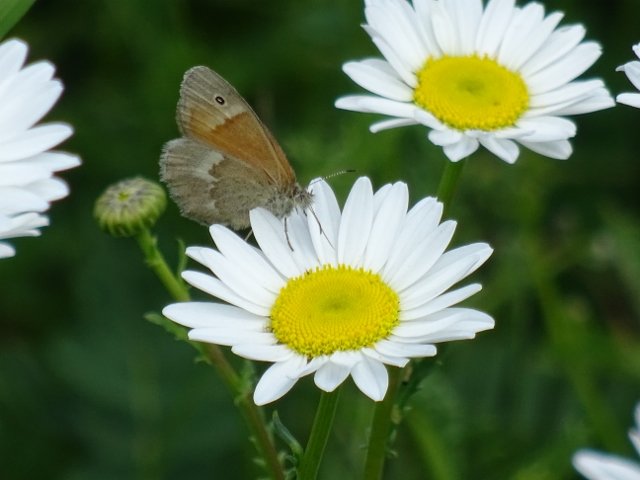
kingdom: Animalia
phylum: Arthropoda
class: Insecta
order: Lepidoptera
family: Nymphalidae
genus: Coenonympha
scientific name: Coenonympha tullia
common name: Large Heath
